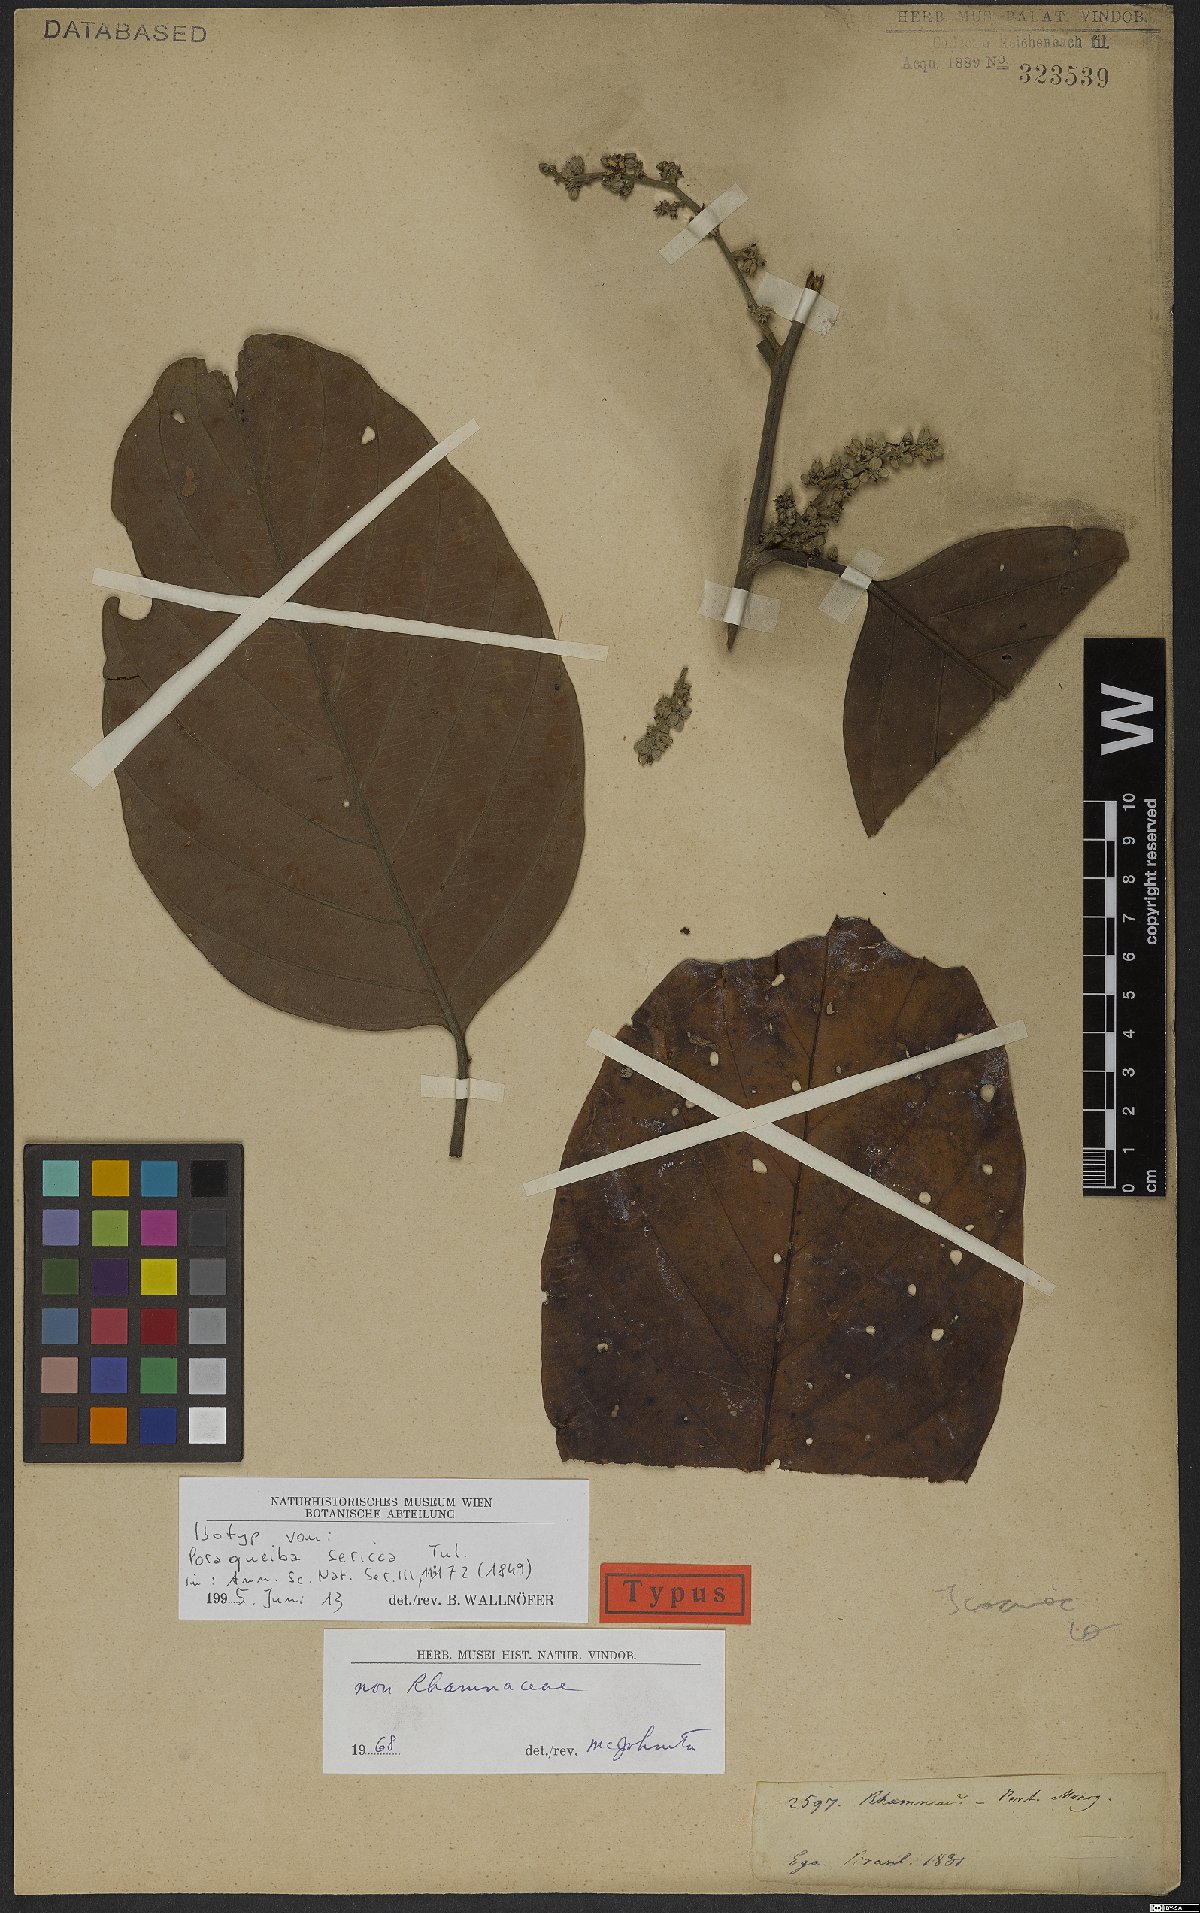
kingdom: Plantae
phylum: Tracheophyta
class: Magnoliopsida
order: Metteniusales
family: Metteniusaceae
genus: Poraqueiba
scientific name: Poraqueiba sericea
